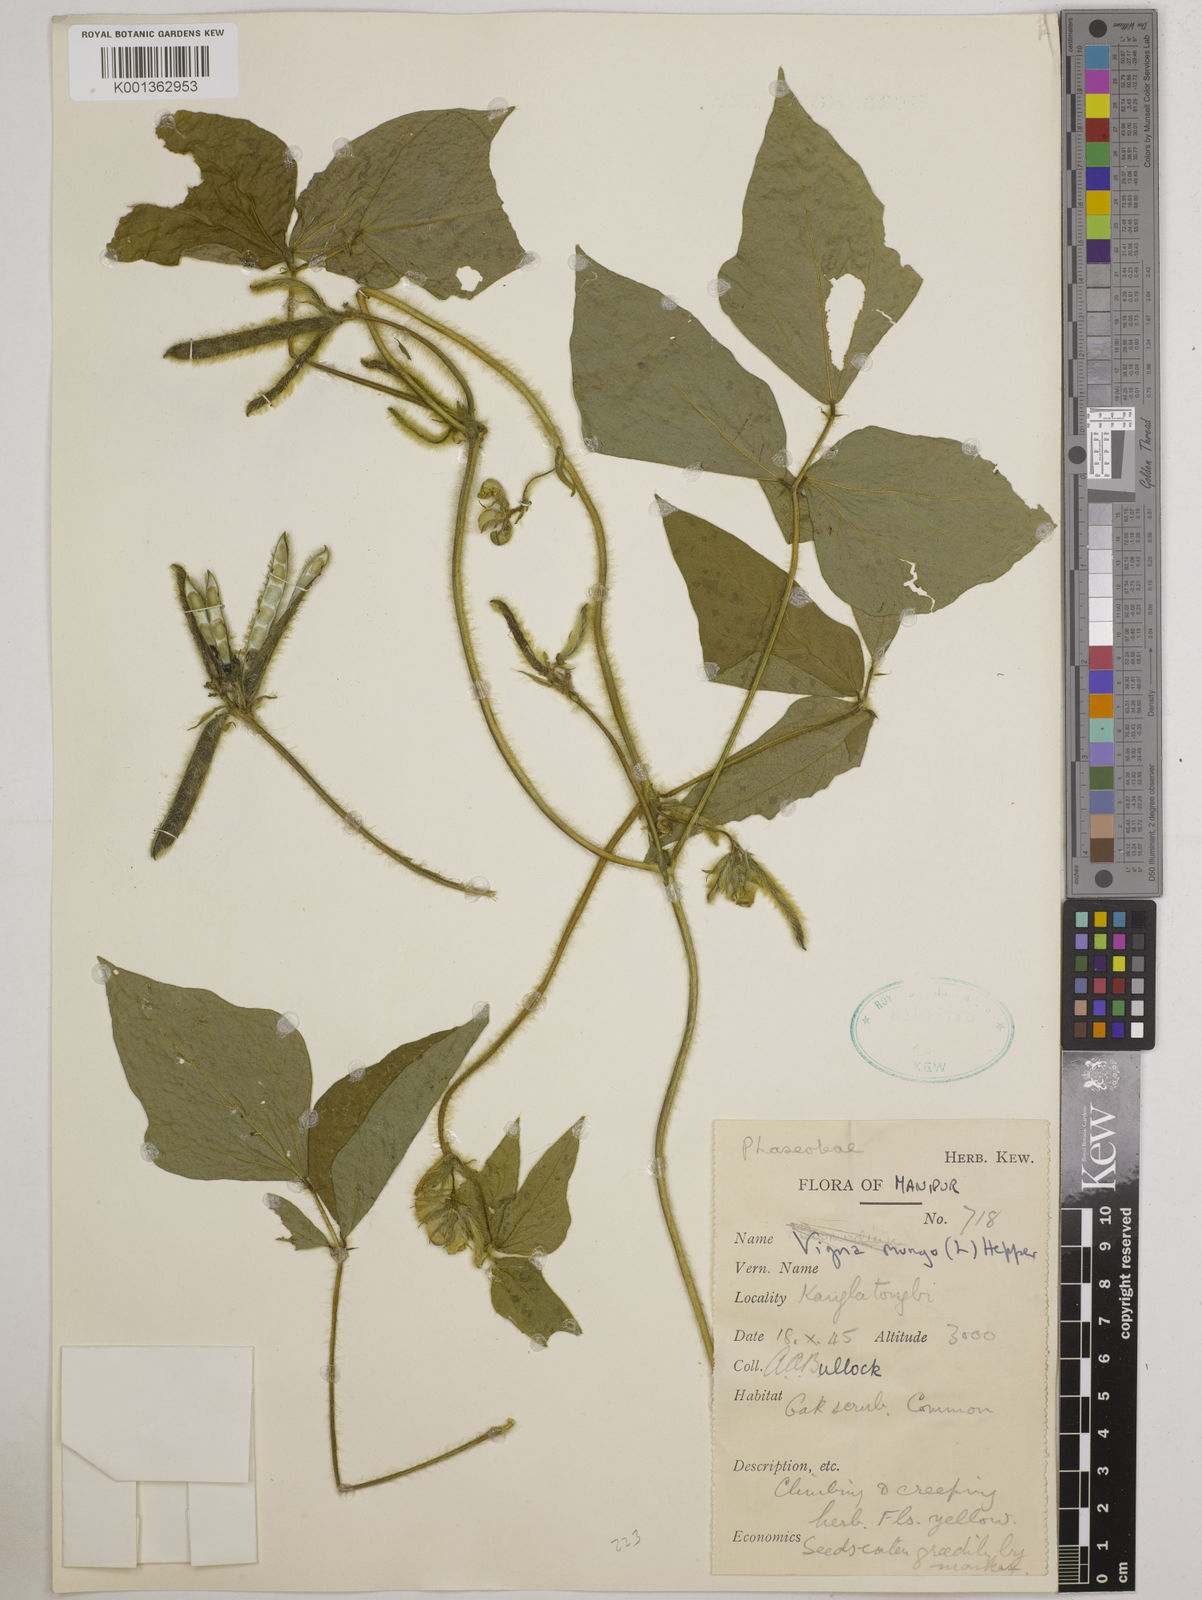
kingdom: Plantae
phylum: Tracheophyta
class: Magnoliopsida
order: Fabales
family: Fabaceae
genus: Vigna
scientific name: Vigna mungo
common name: Black gram
